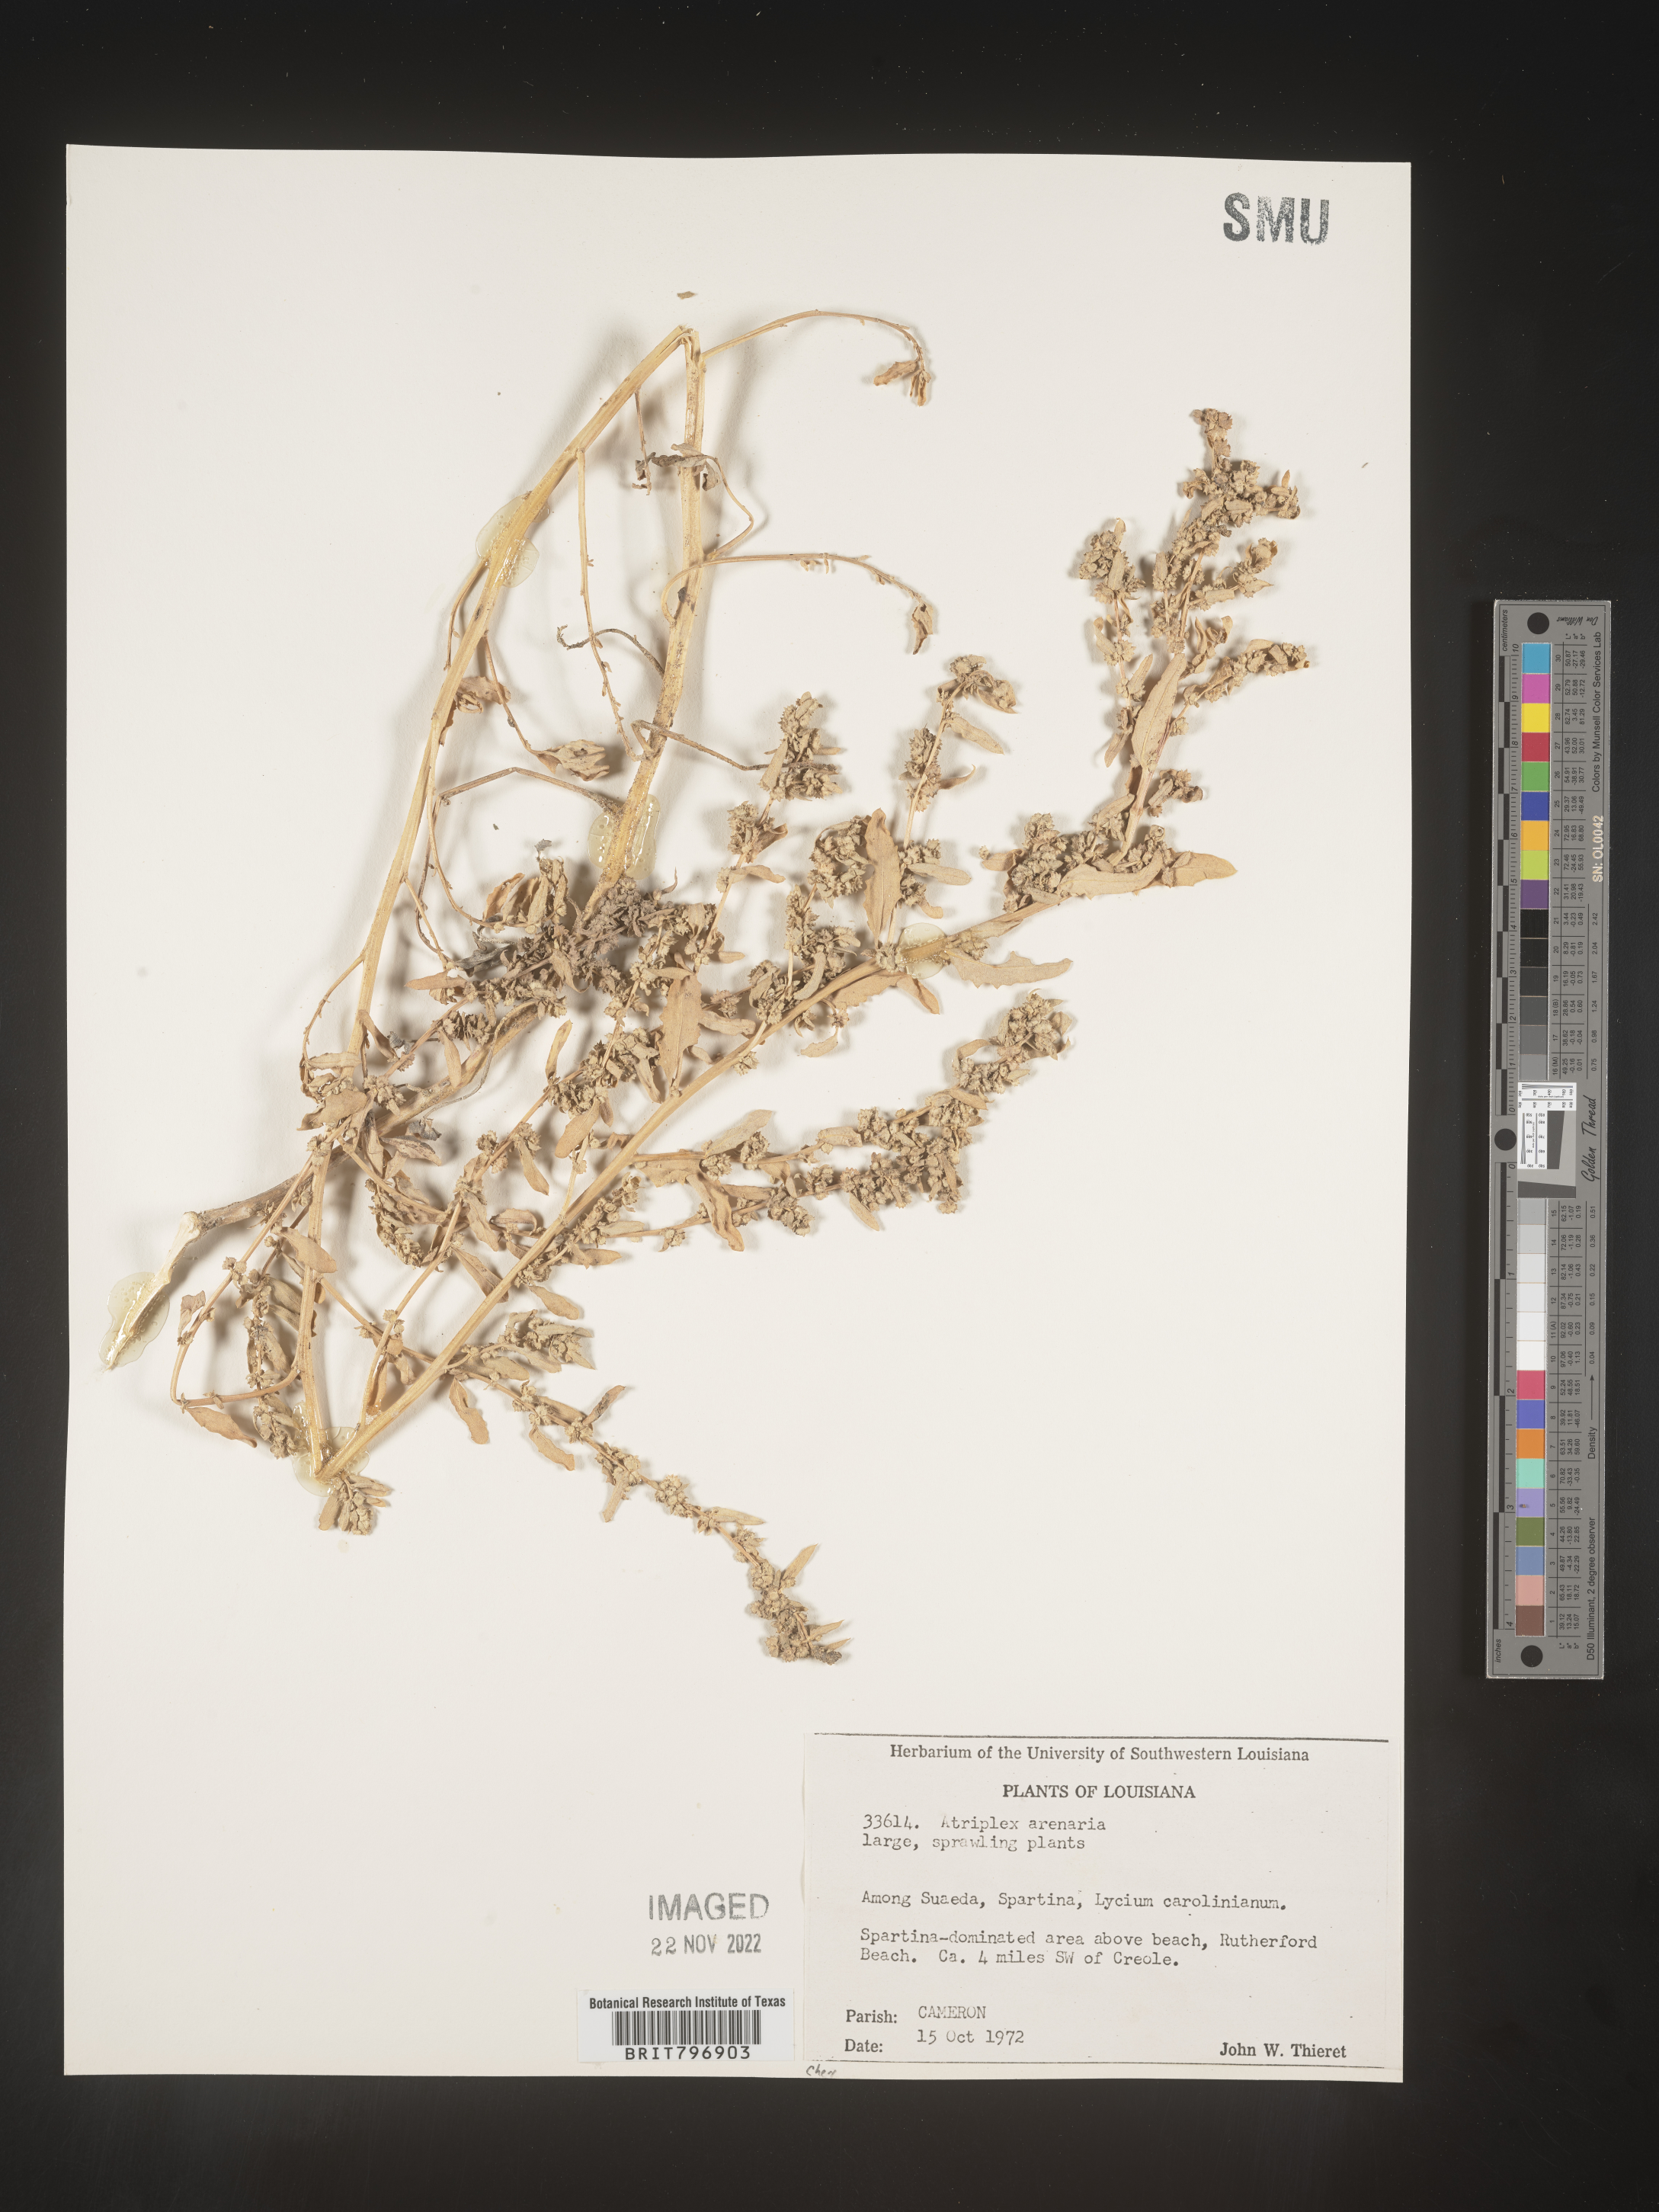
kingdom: Plantae
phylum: Tracheophyta
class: Magnoliopsida
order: Caryophyllales
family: Amaranthaceae
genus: Atriplex
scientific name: Atriplex mucronata
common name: Quelite
